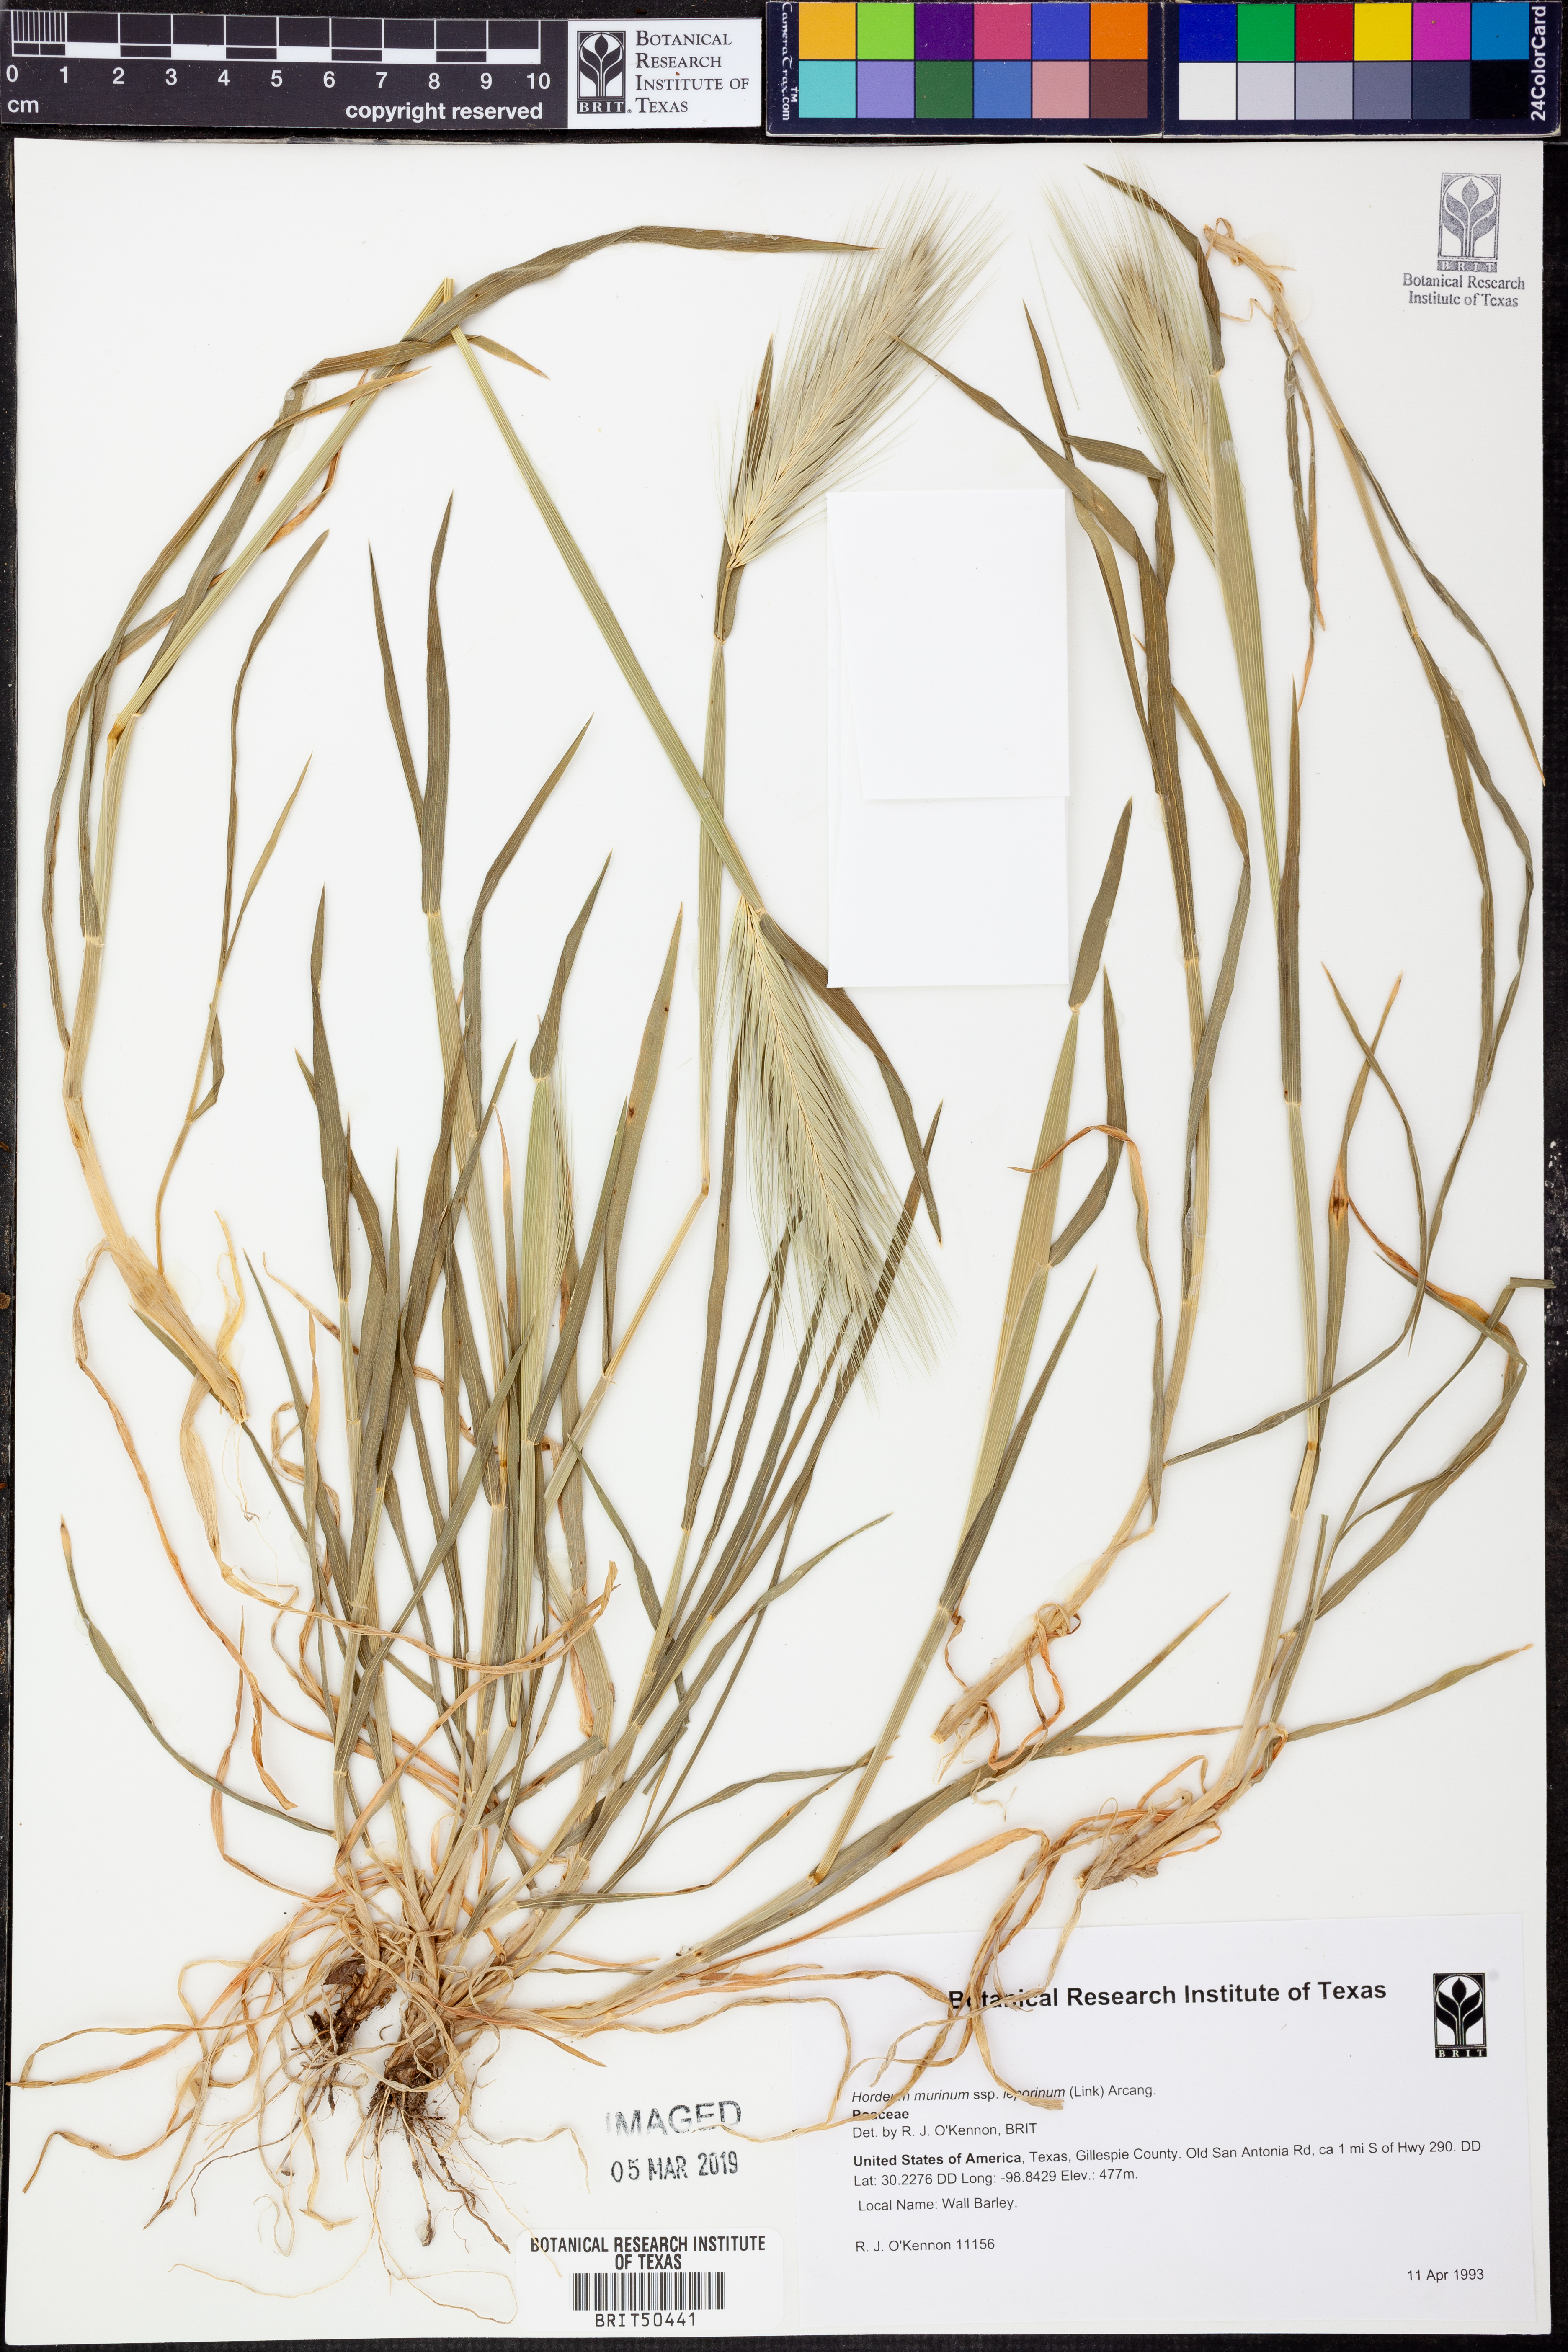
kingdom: Plantae
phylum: Tracheophyta
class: Liliopsida
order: Poales
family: Poaceae
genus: Hordeum
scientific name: Hordeum murinum
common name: Wall barley
